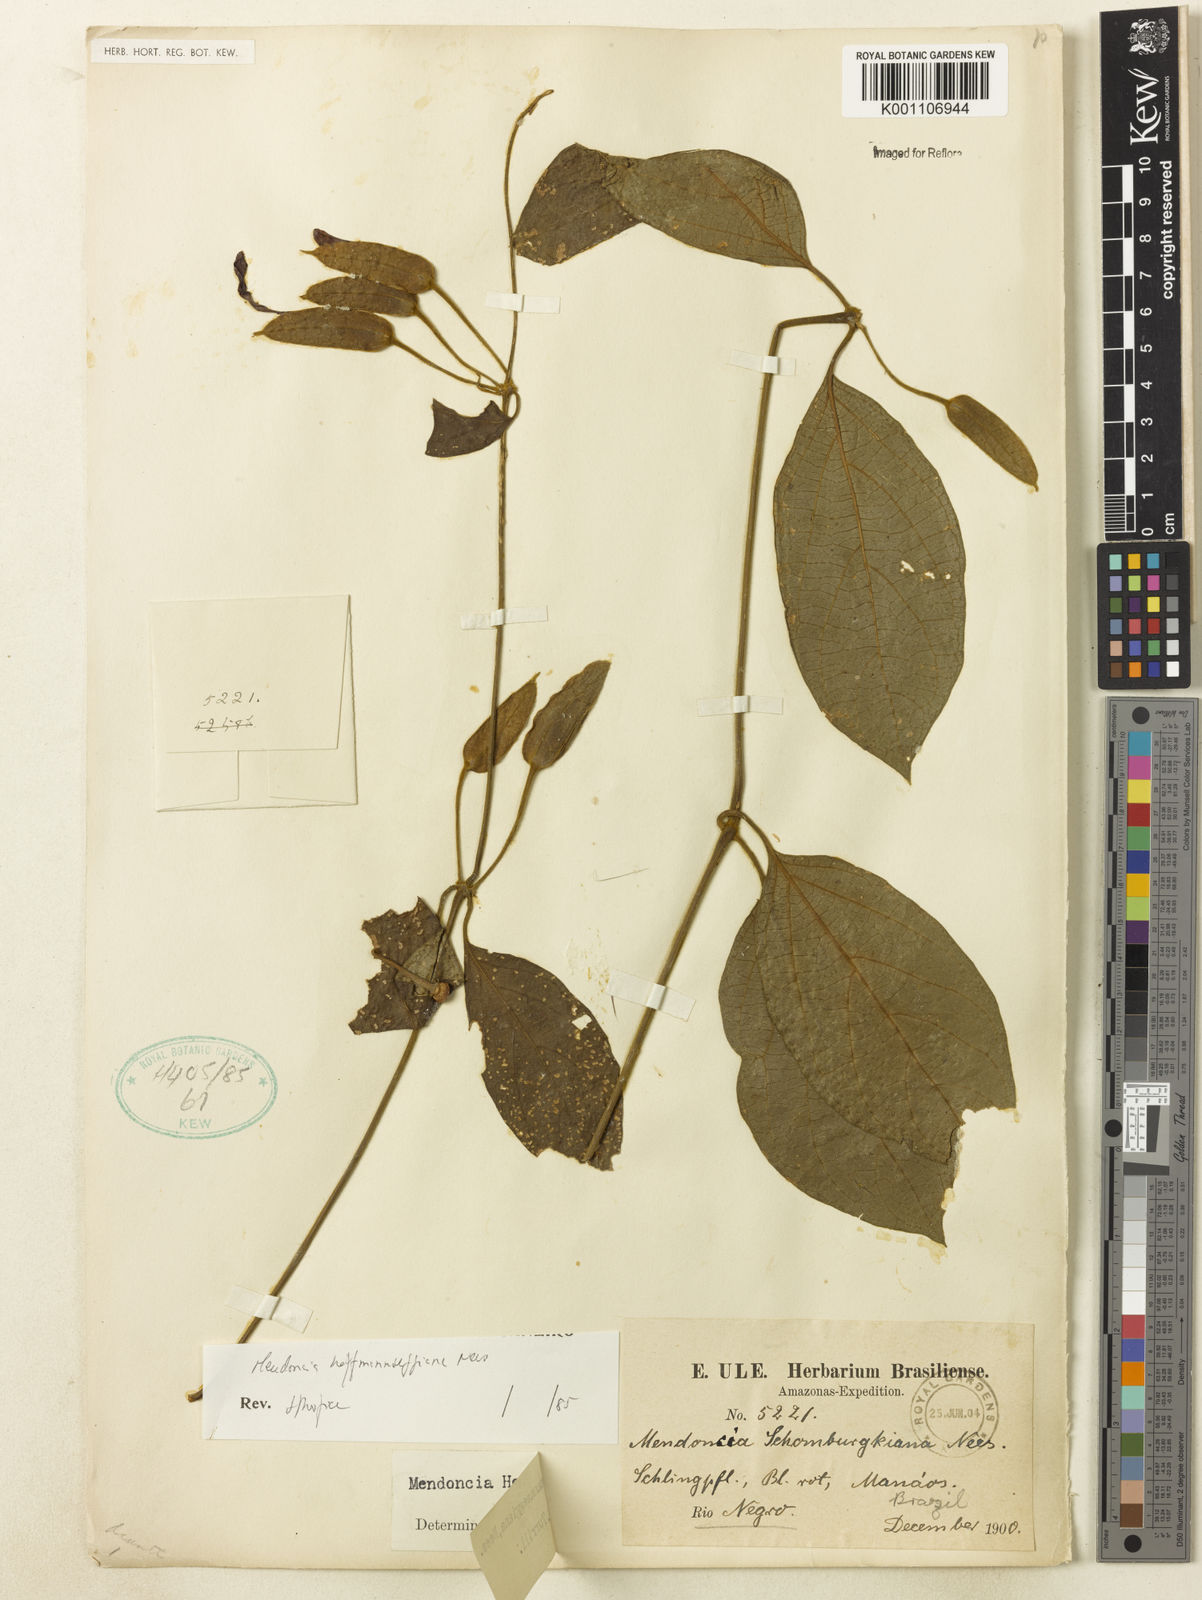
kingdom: Plantae
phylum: Tracheophyta
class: Magnoliopsida
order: Lamiales
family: Acanthaceae
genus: Mendoncia
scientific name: Mendoncia hoffmannseggiana
